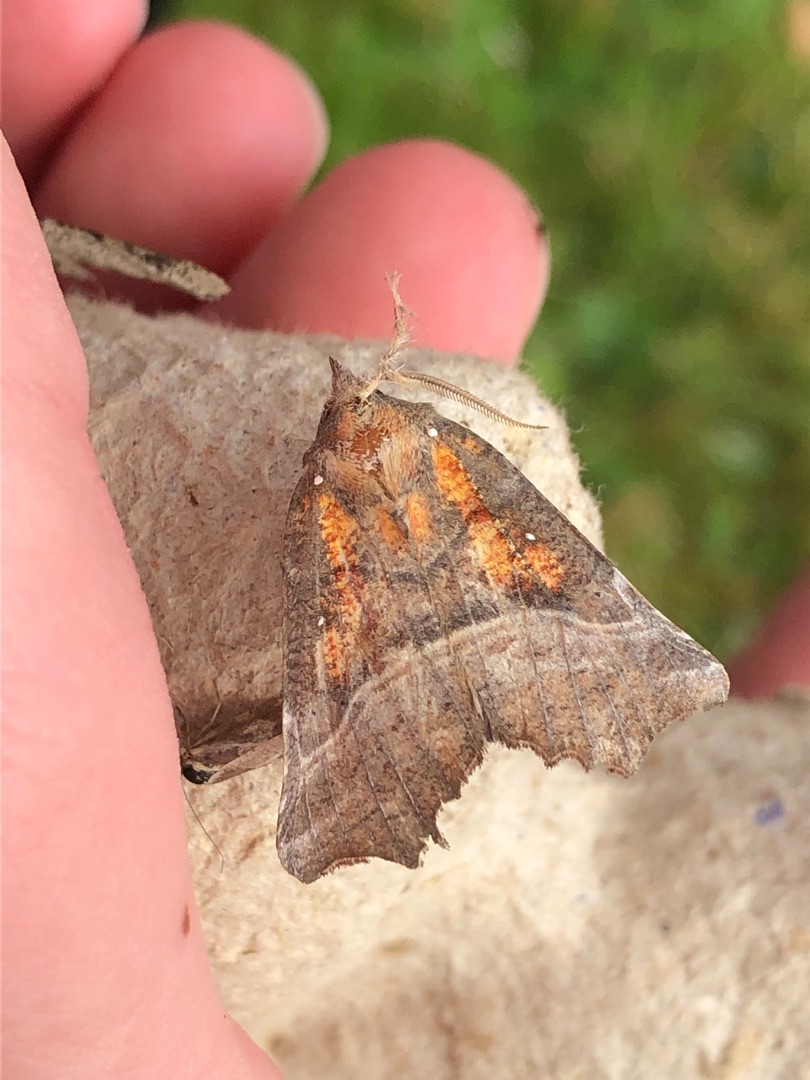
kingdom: Animalia
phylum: Arthropoda
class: Insecta
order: Lepidoptera
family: Erebidae
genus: Scoliopteryx
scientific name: Scoliopteryx libatrix
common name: Husmoderugle
